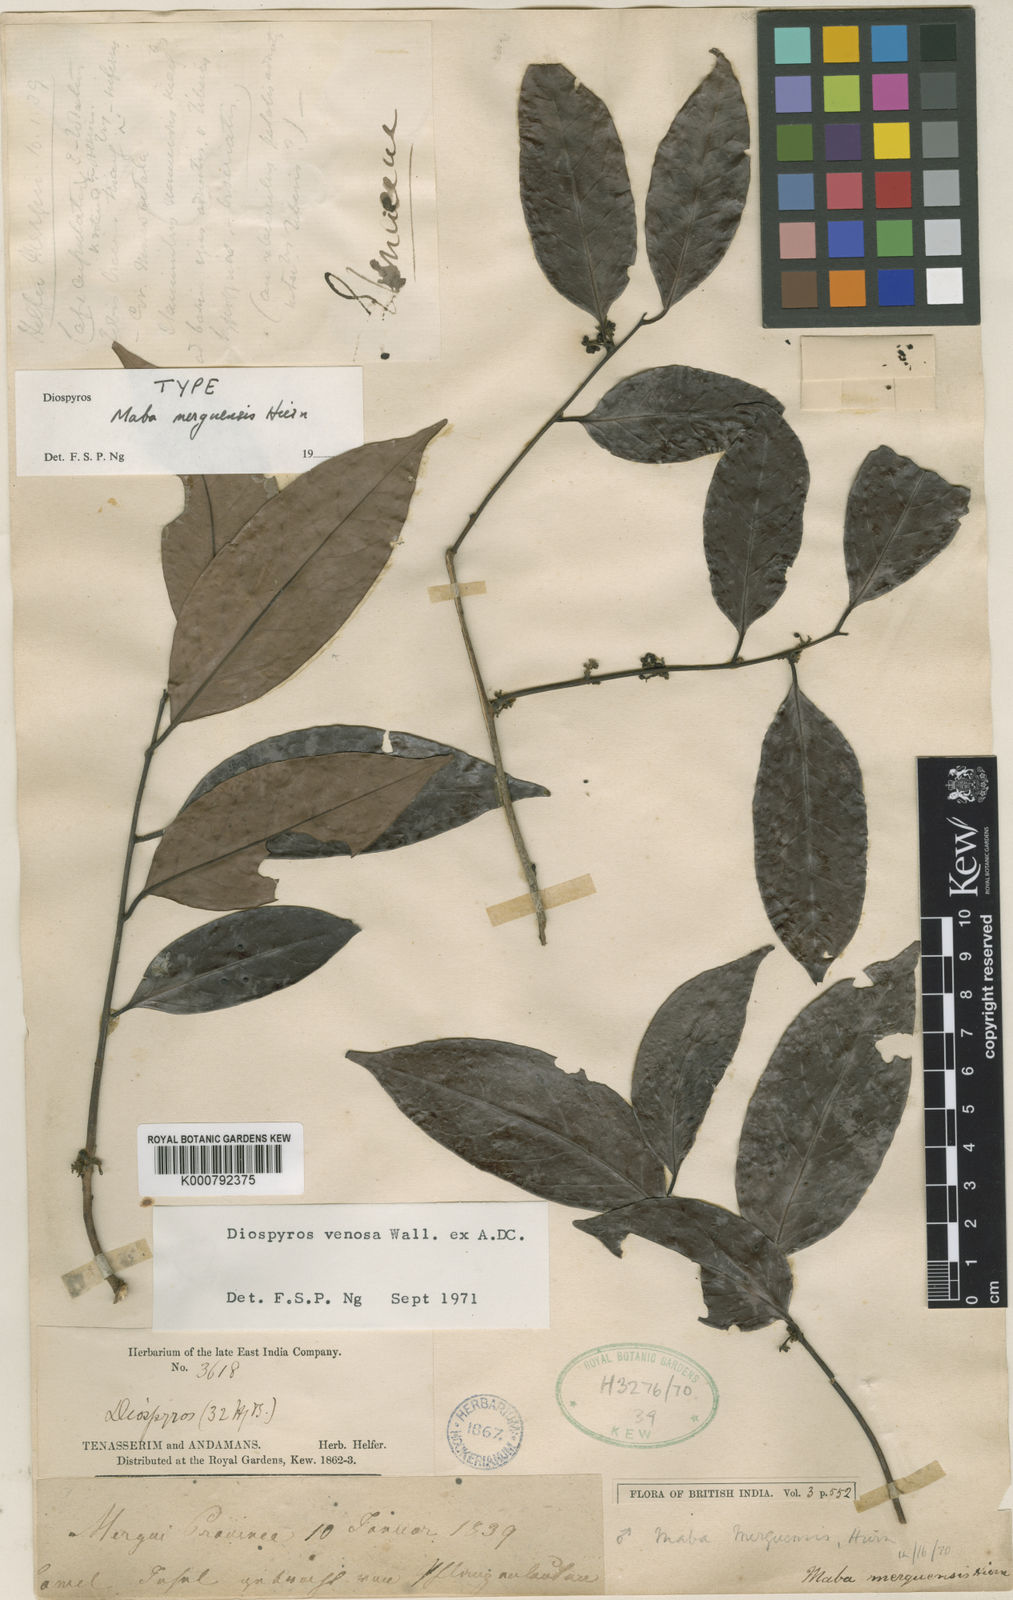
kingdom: Plantae
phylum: Tracheophyta
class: Magnoliopsida
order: Ericales
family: Ebenaceae
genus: Diospyros
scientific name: Diospyros venosa
